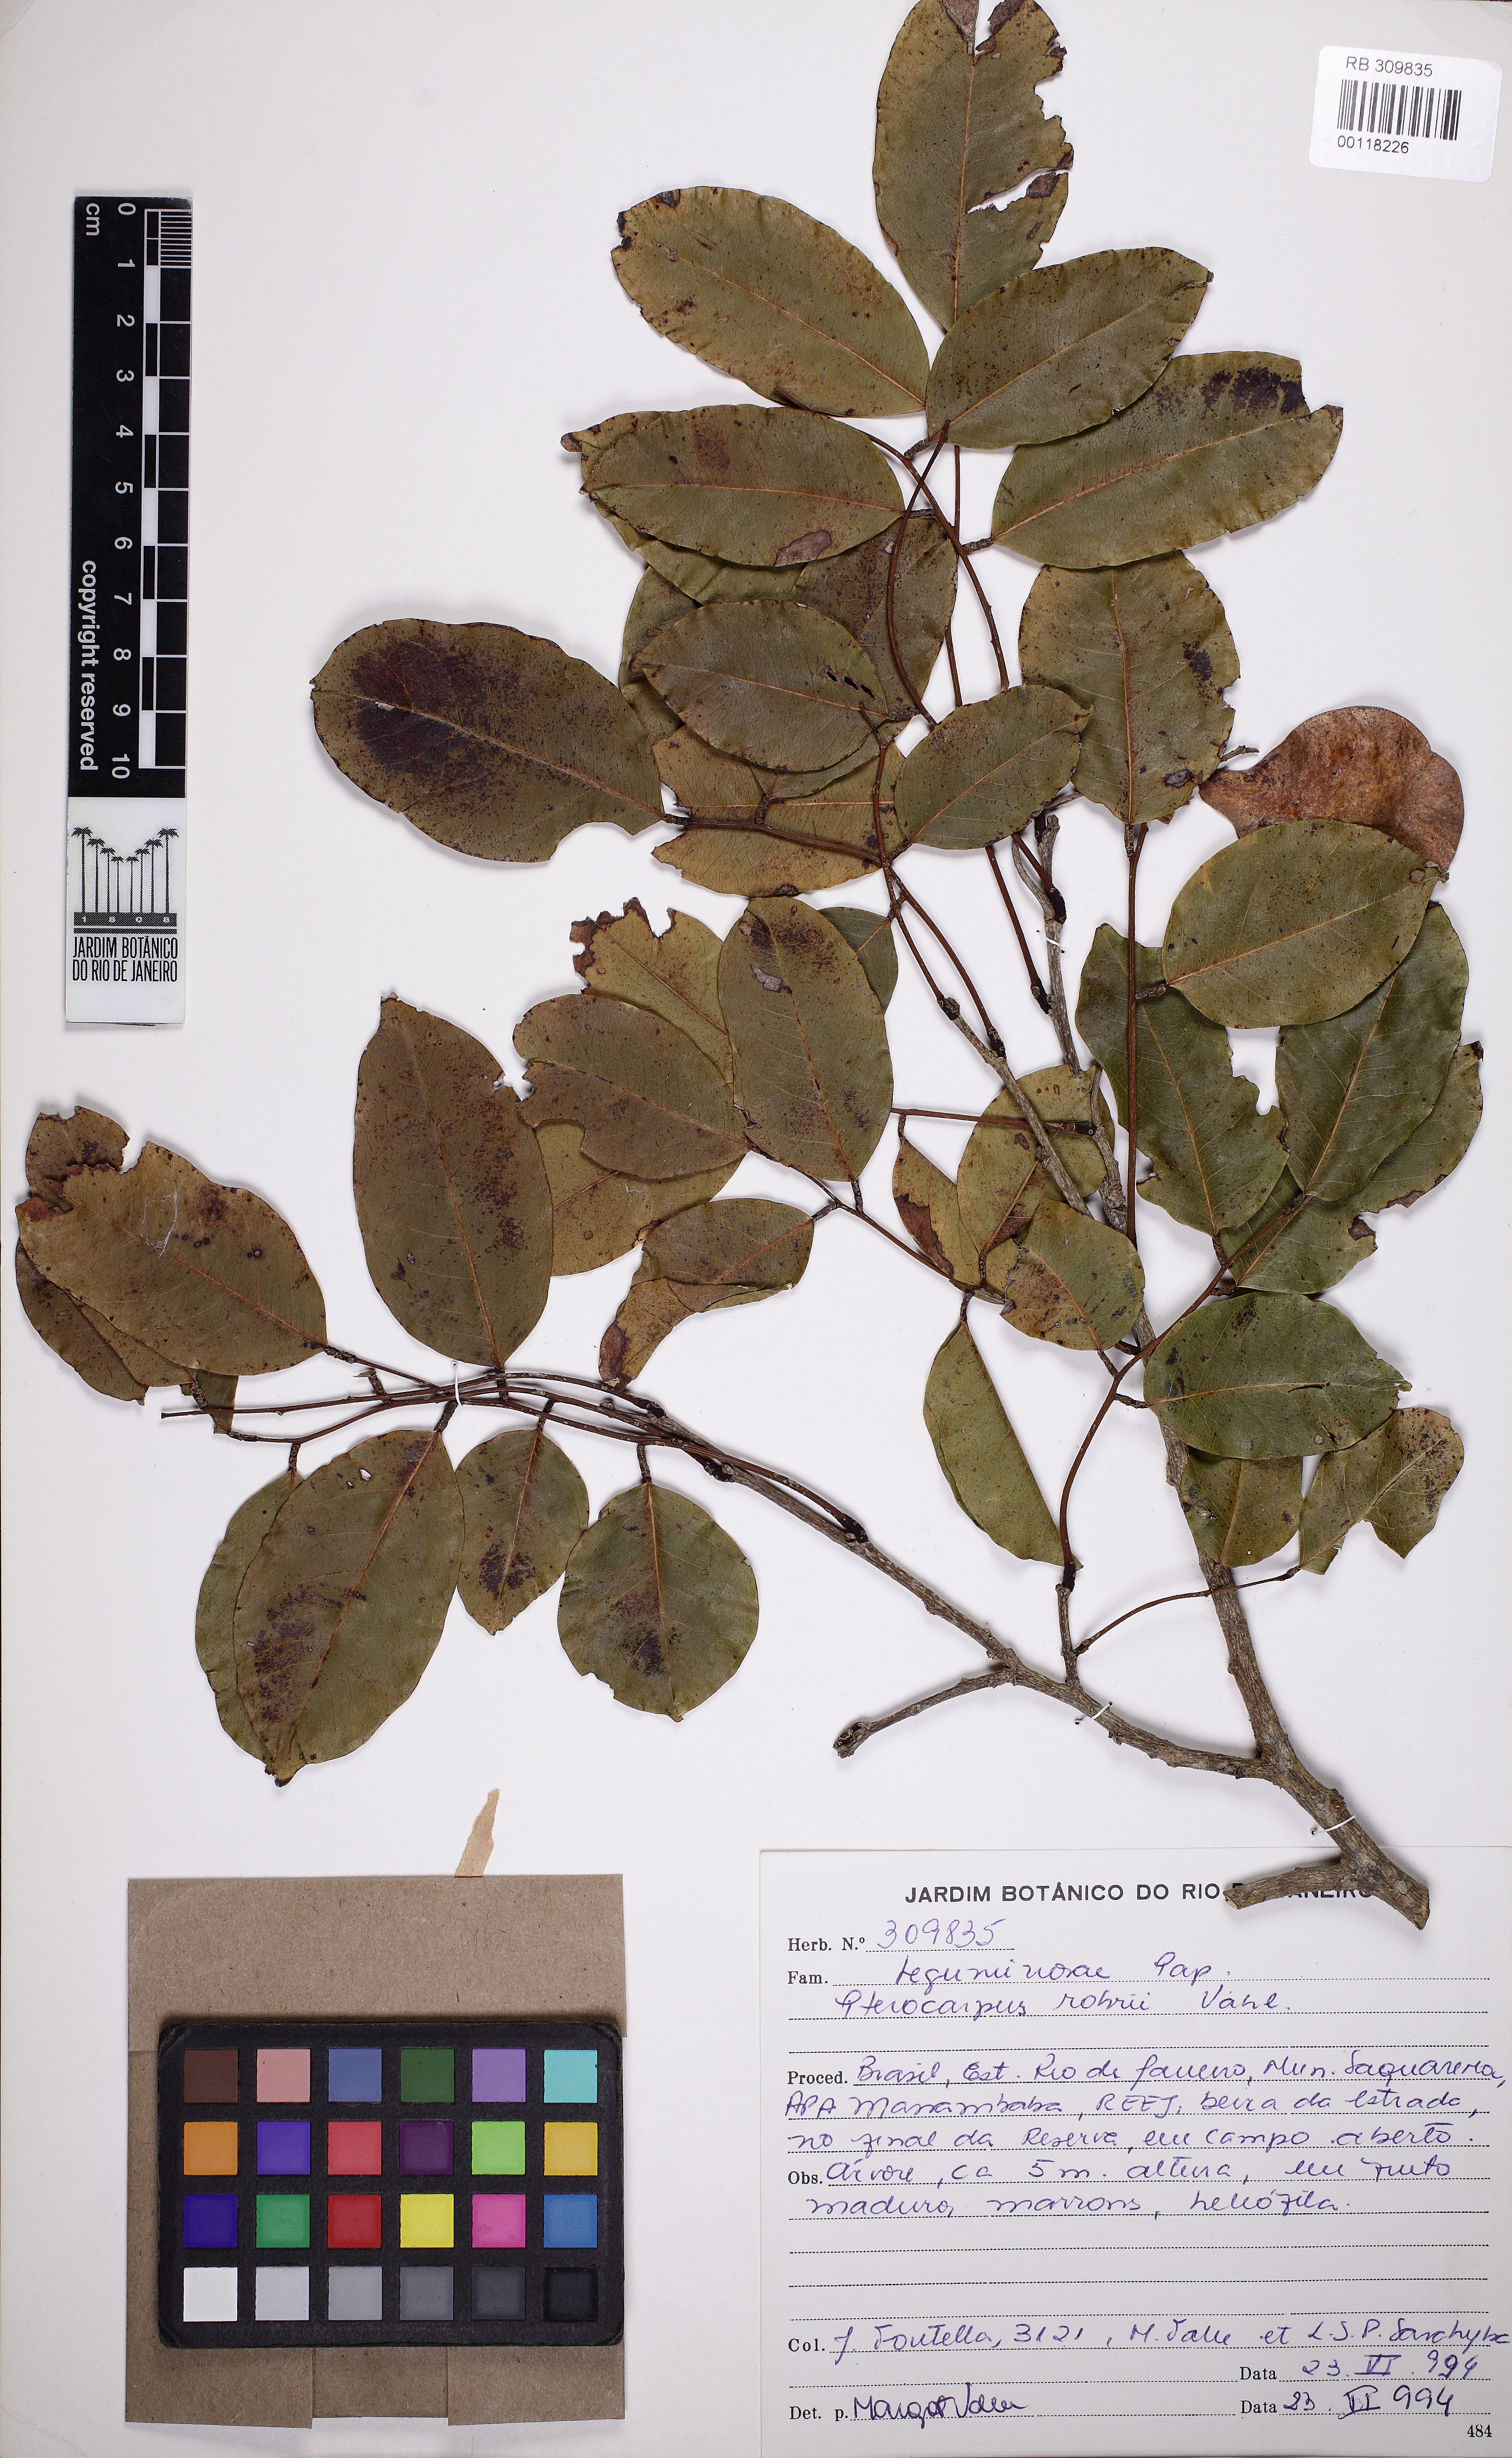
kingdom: Plantae
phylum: Tracheophyta
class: Magnoliopsida
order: Fabales
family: Fabaceae
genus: Pterocarpus
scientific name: Pterocarpus rohrii
